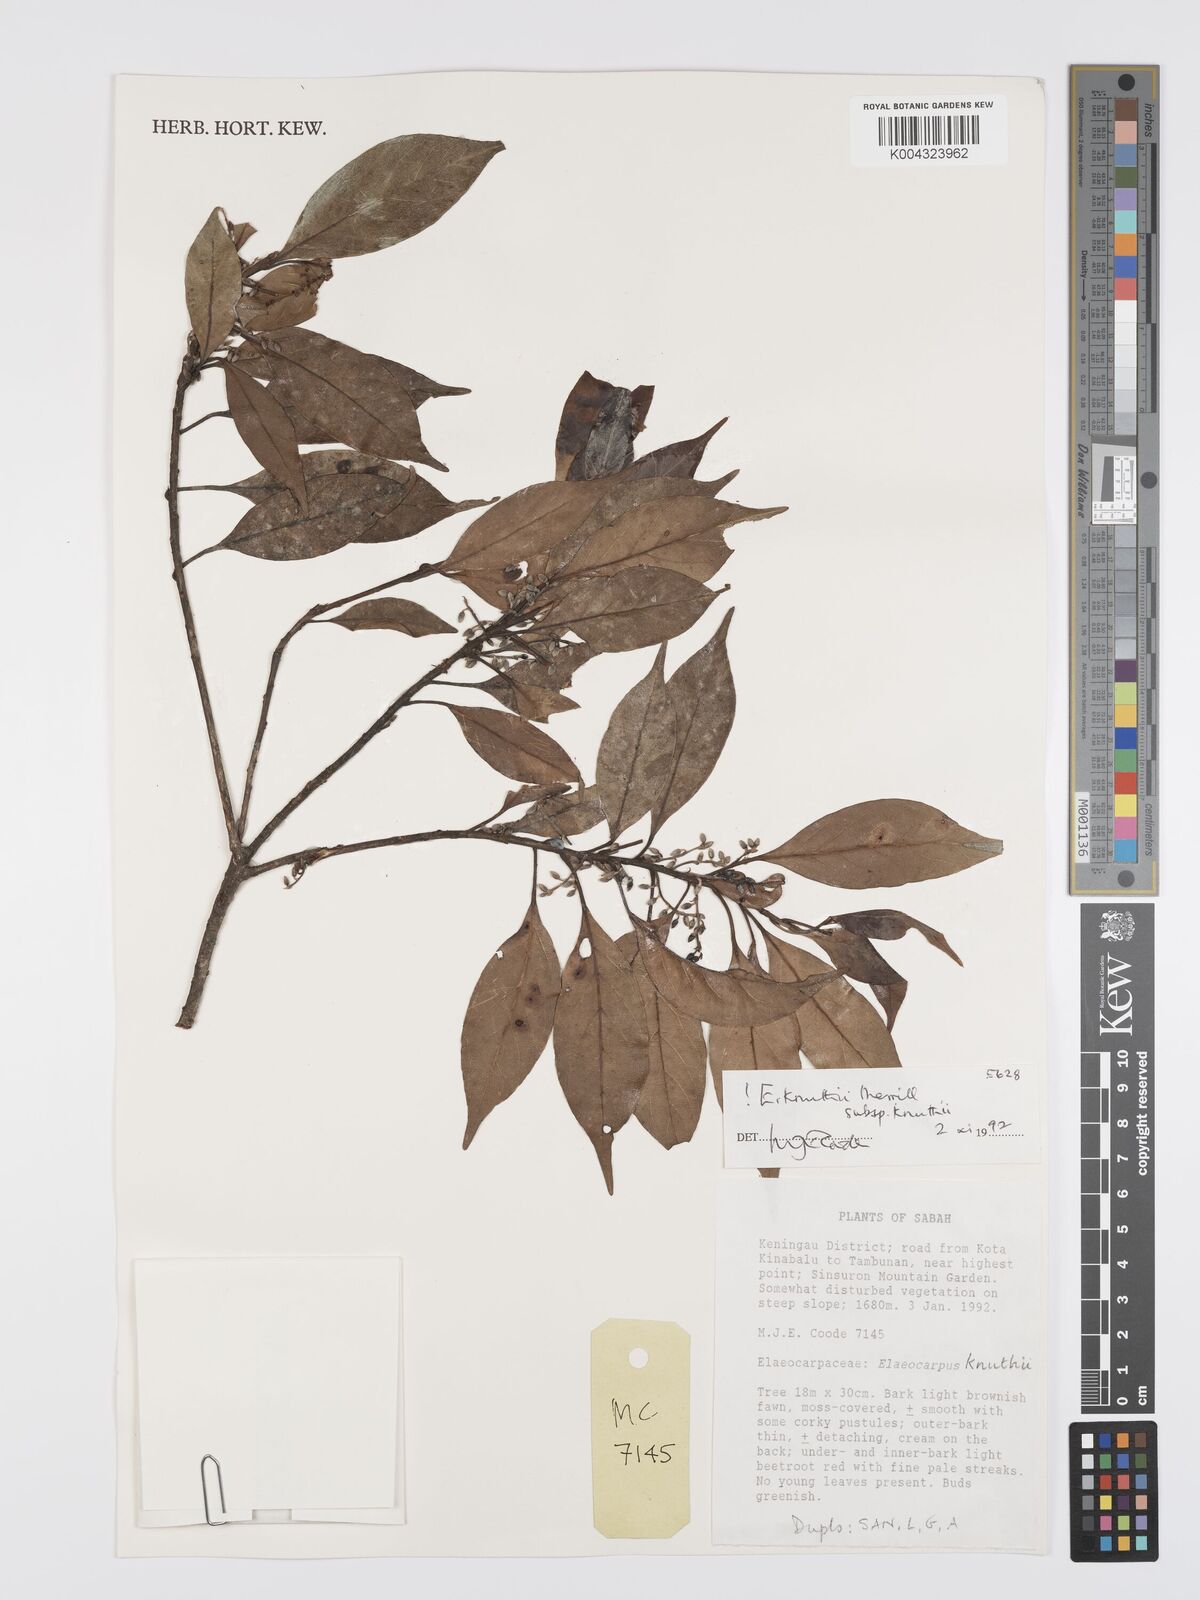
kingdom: Plantae
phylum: Tracheophyta
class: Magnoliopsida
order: Oxalidales
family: Elaeocarpaceae
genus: Elaeocarpus
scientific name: Elaeocarpus knuthii
